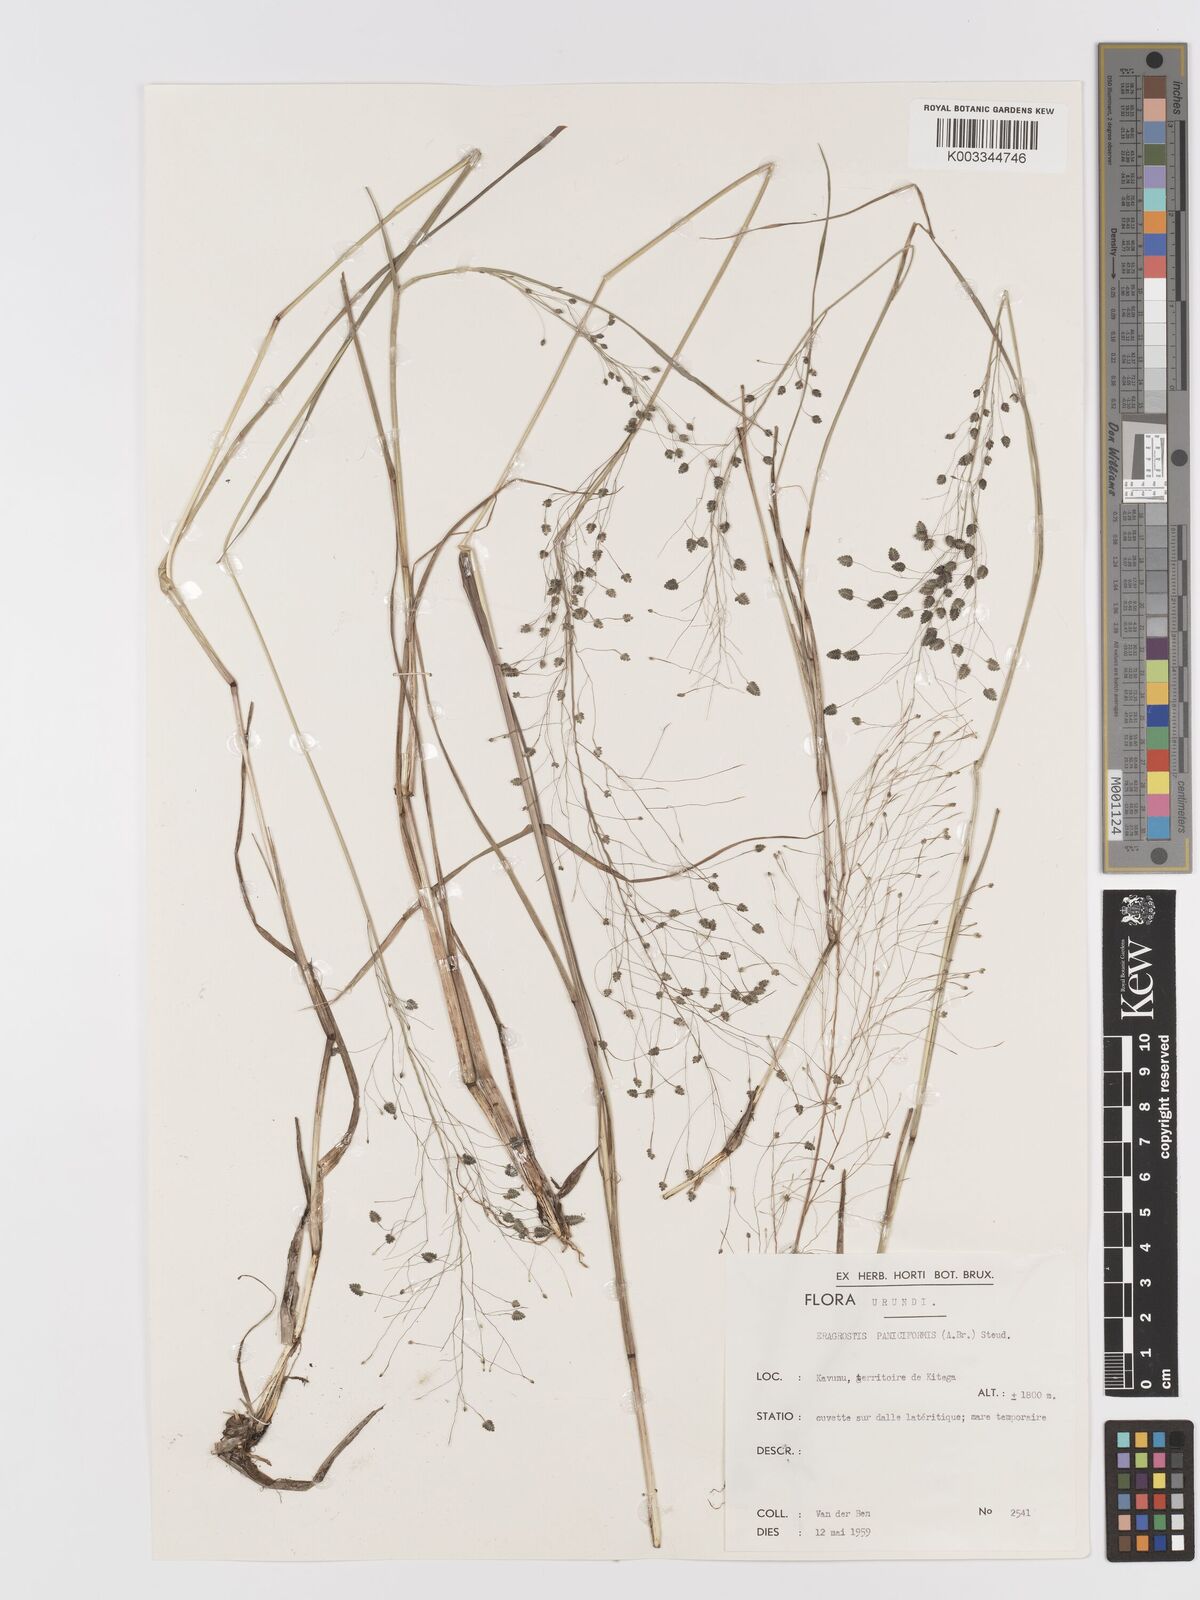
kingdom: Plantae
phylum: Tracheophyta
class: Liliopsida
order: Poales
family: Poaceae
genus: Eragrostis
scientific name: Eragrostis exasperata
